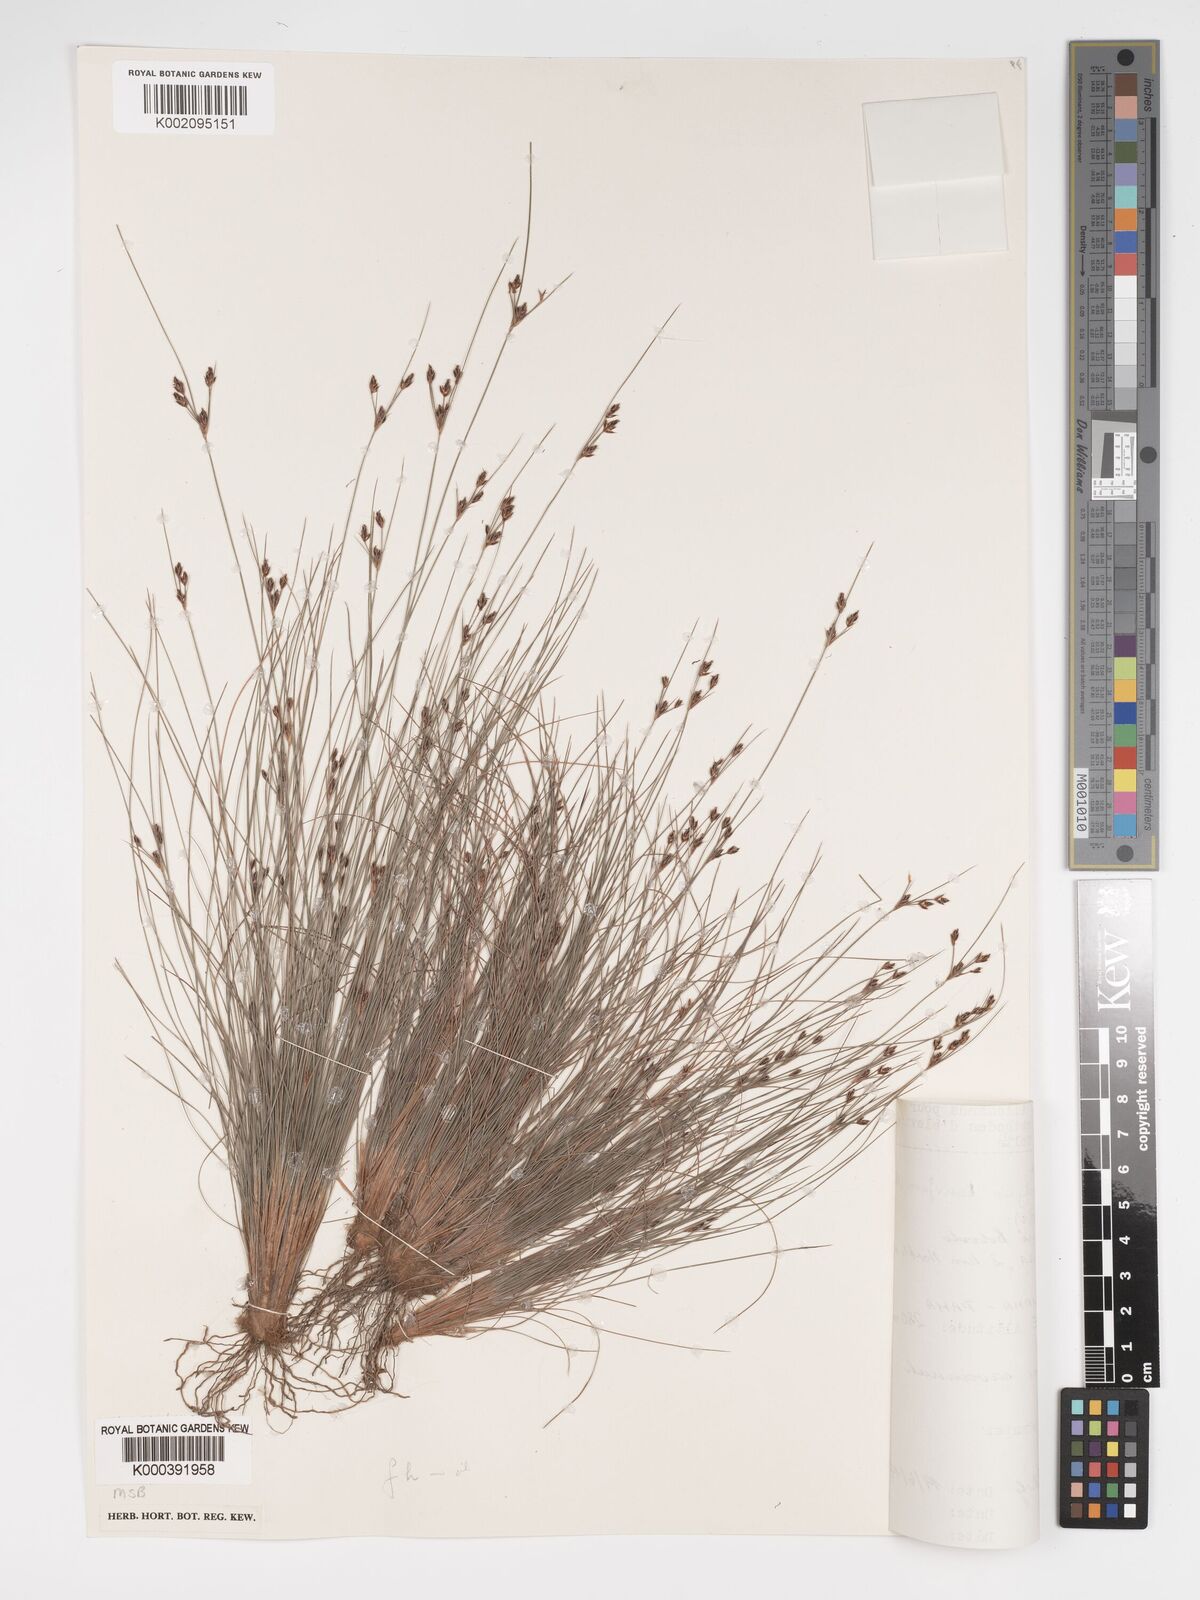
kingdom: Plantae
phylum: Tracheophyta
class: Liliopsida
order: Poales
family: Cyperaceae
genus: Bulbostylis
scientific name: Bulbostylis
